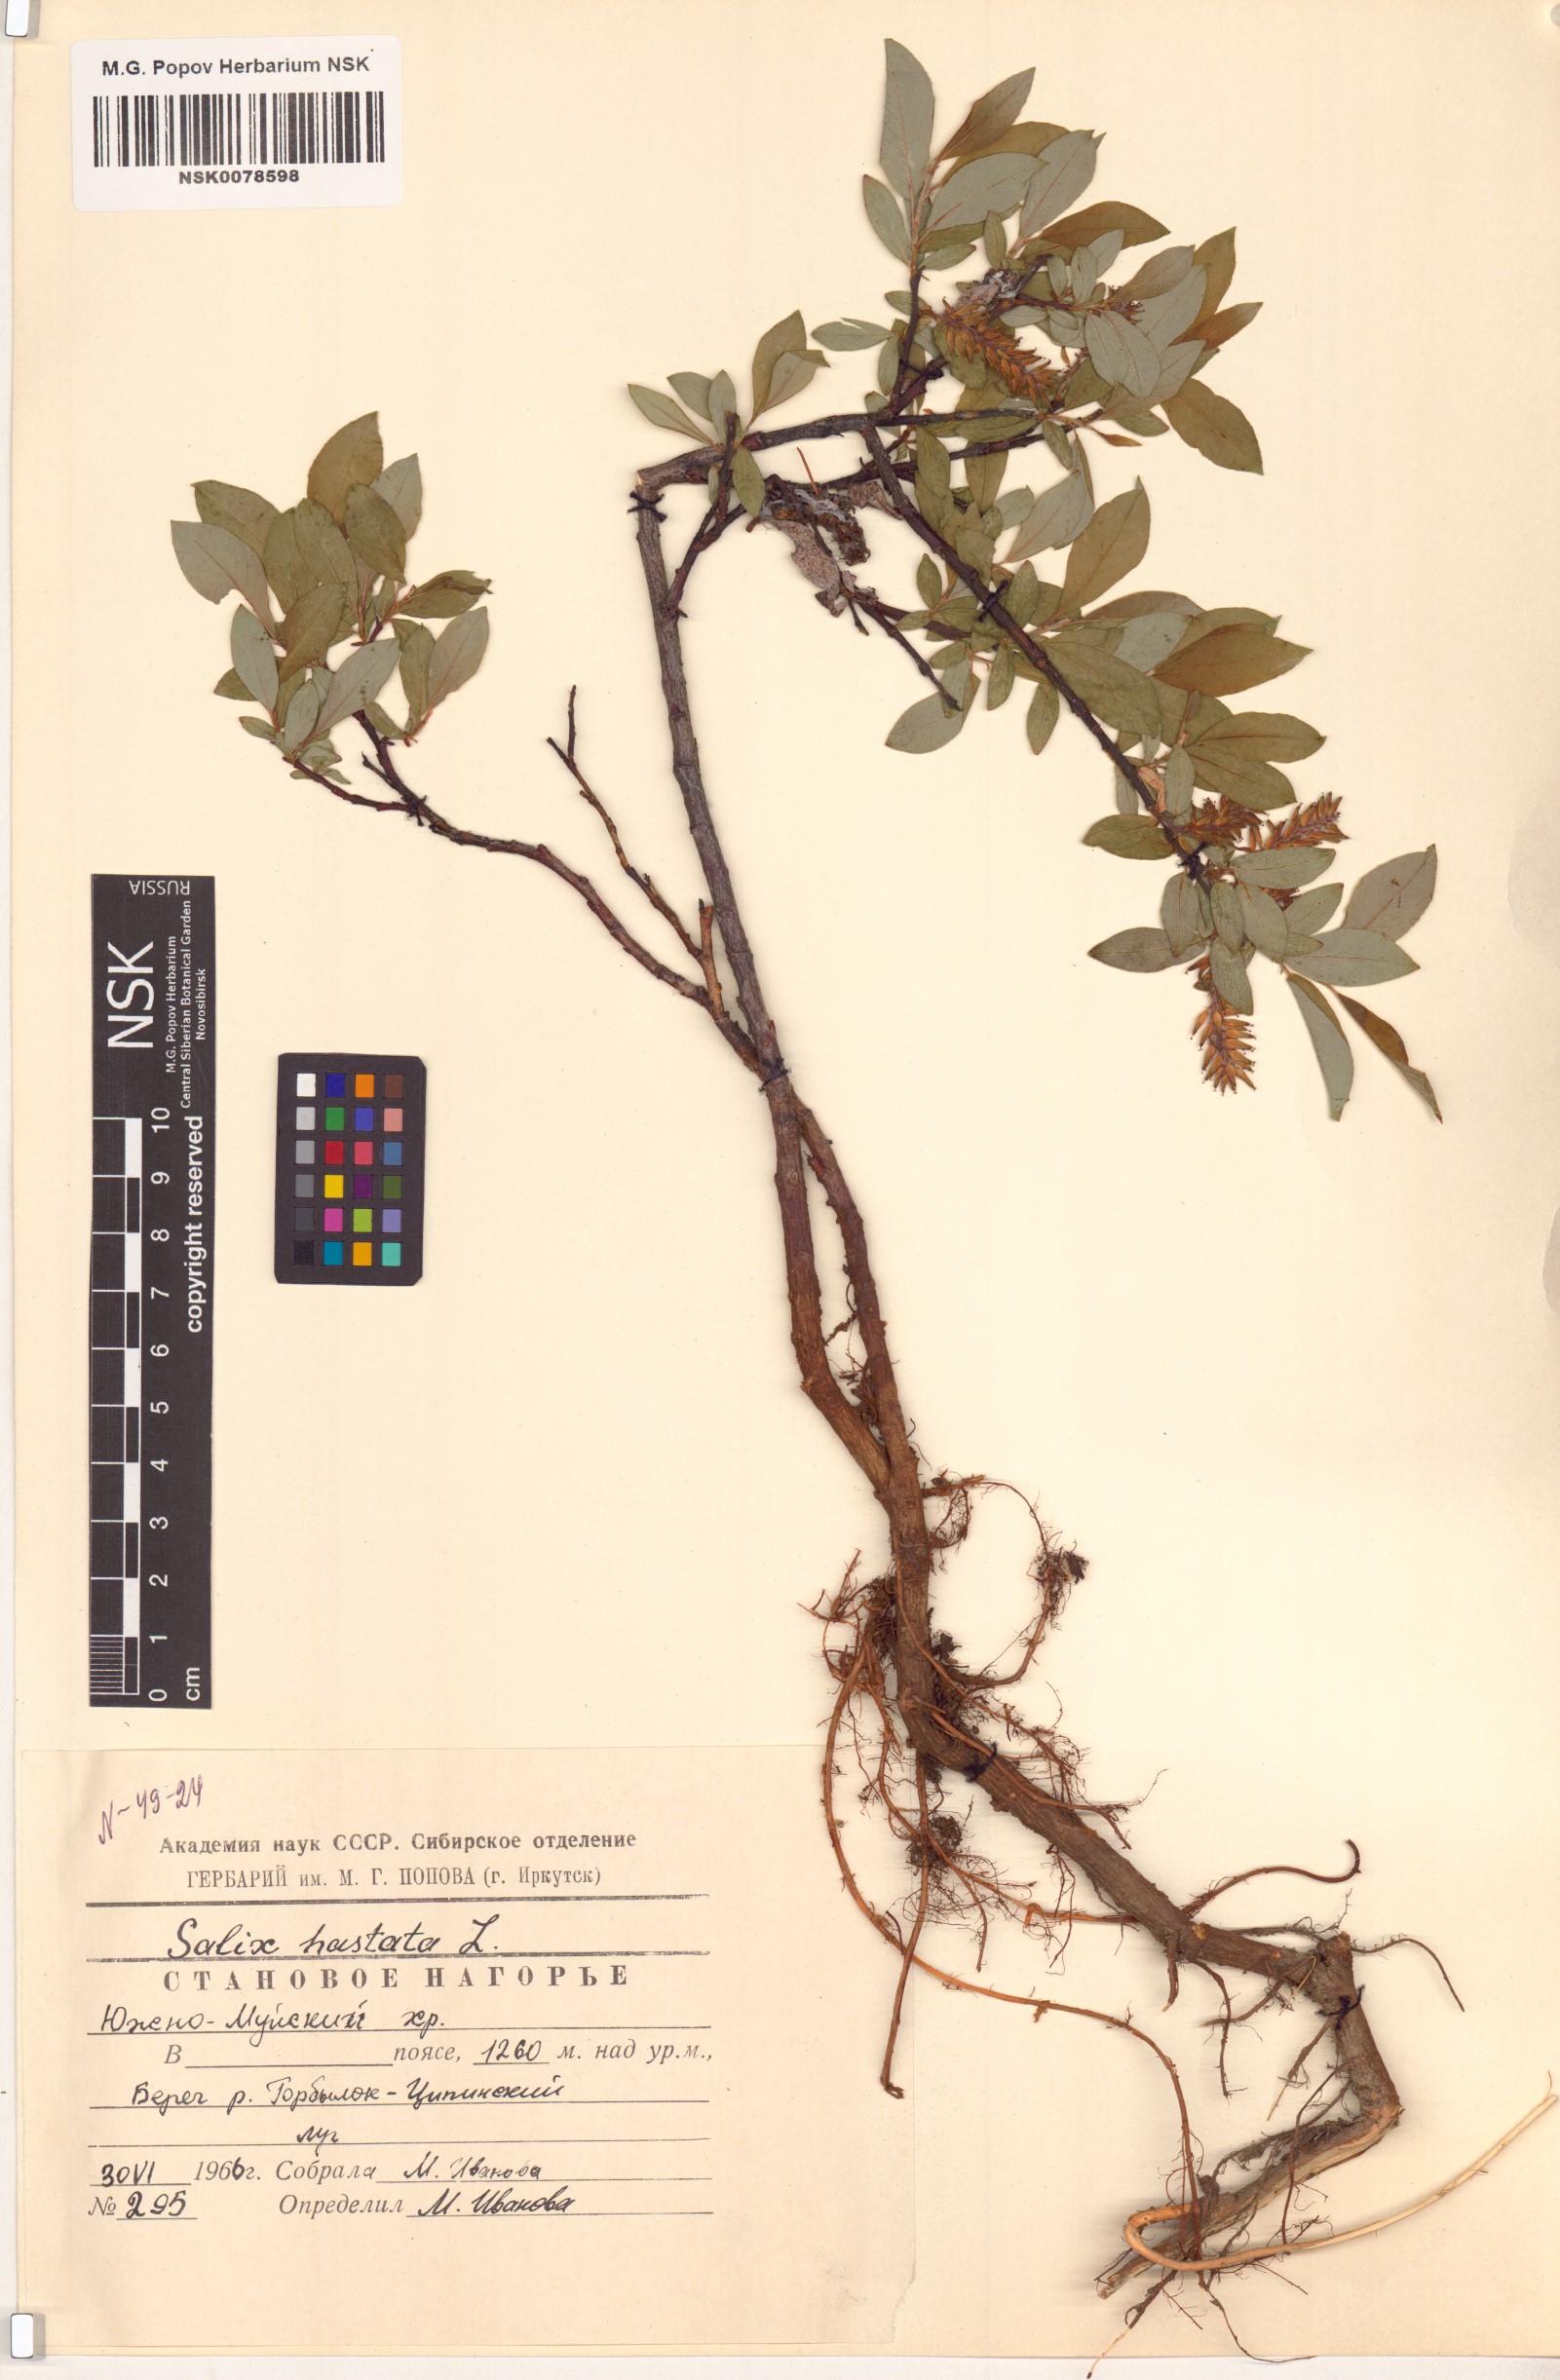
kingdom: Plantae
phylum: Tracheophyta
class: Magnoliopsida
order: Malpighiales
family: Salicaceae
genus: Salix
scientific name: Salix hastata
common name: Halberd willow
